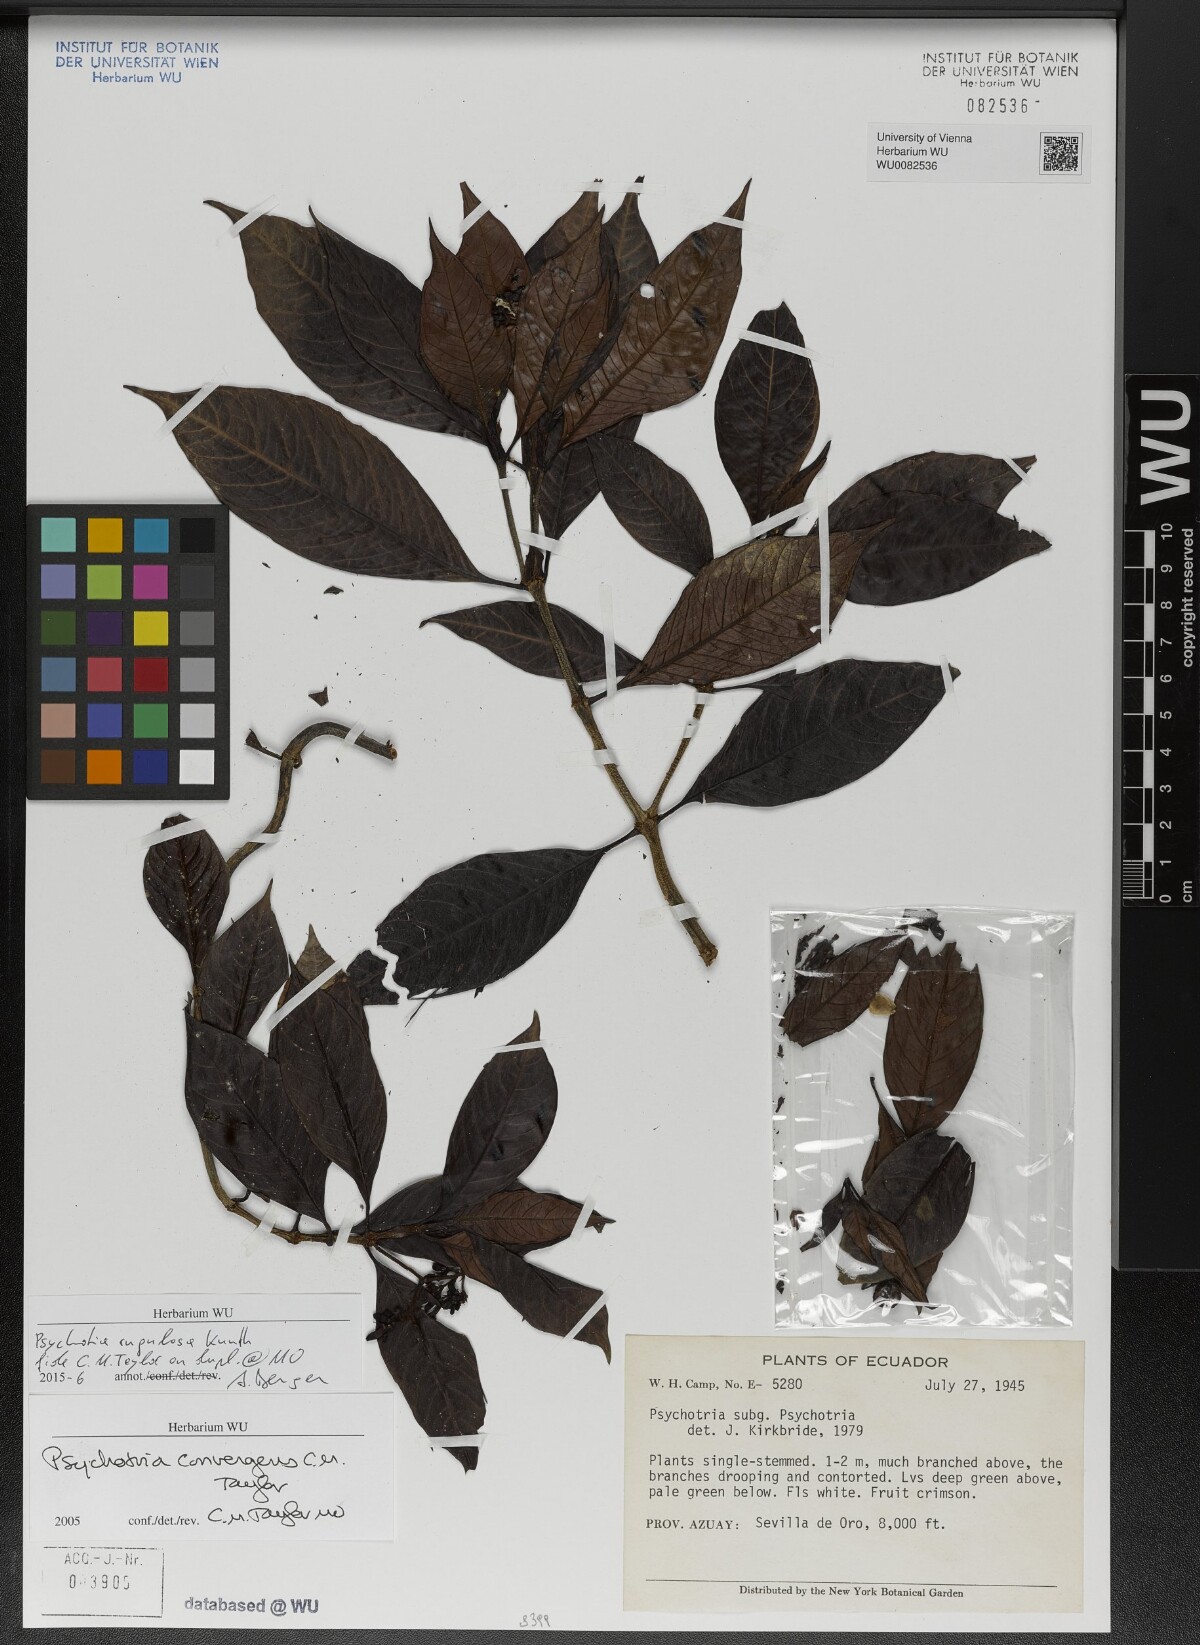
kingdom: Plantae
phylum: Tracheophyta
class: Magnoliopsida
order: Gentianales
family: Rubiaceae
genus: Psychotria
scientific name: Psychotria rugulosa
